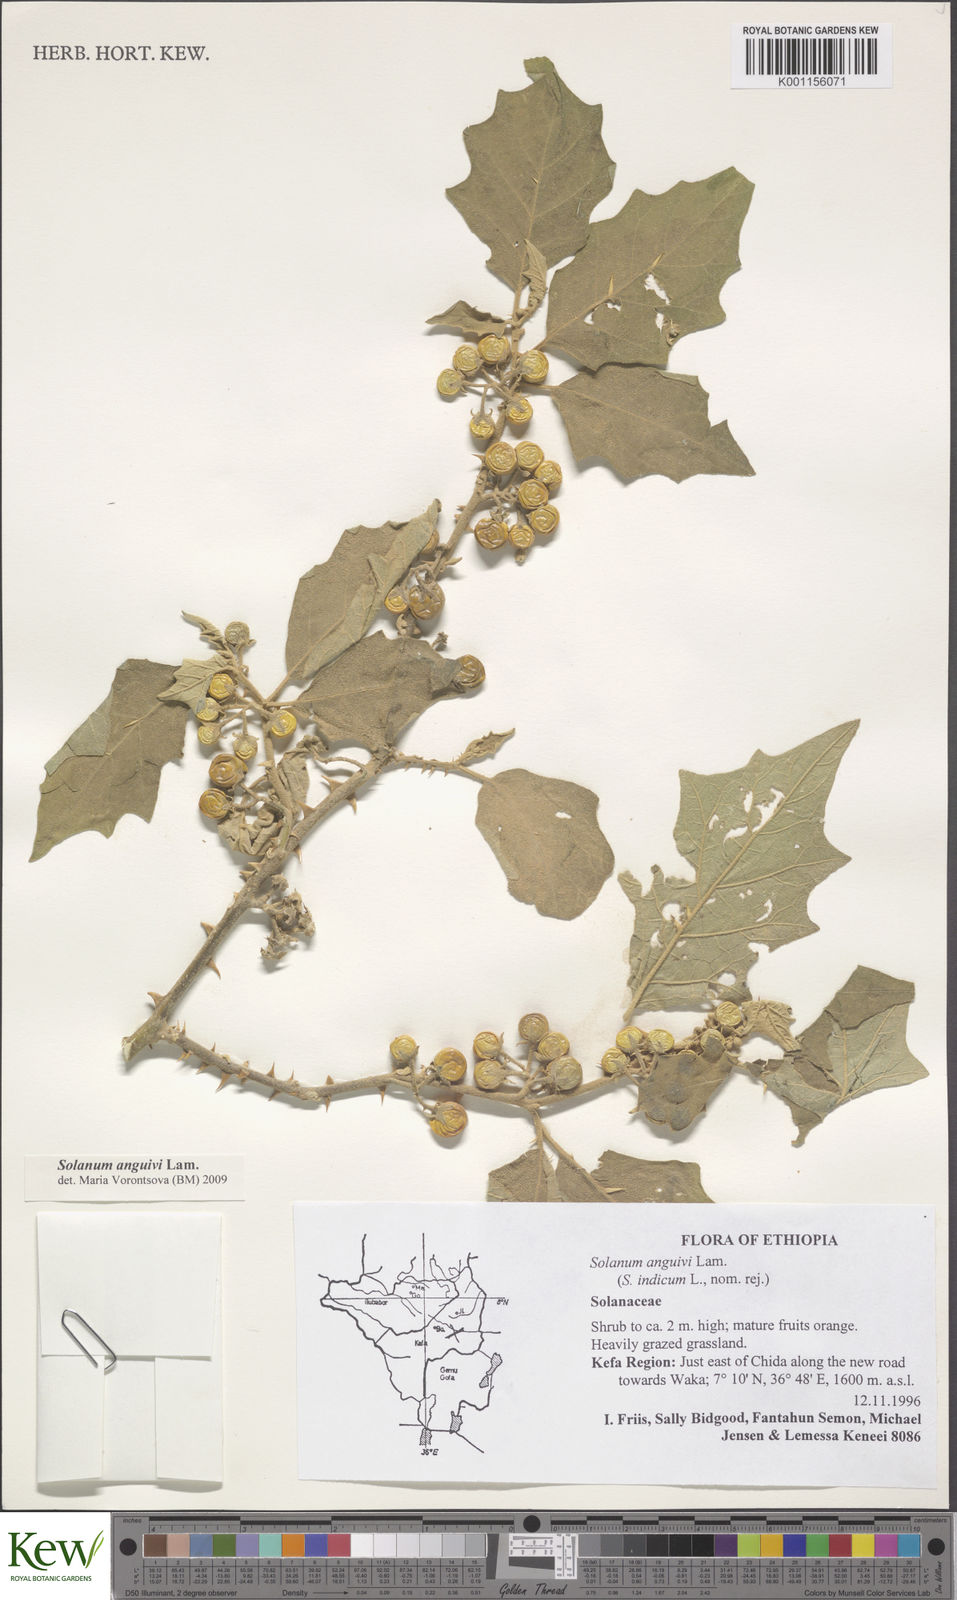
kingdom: Plantae
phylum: Tracheophyta
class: Magnoliopsida
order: Solanales
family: Solanaceae
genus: Solanum
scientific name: Solanum anguivi
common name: Forest bitterberry
